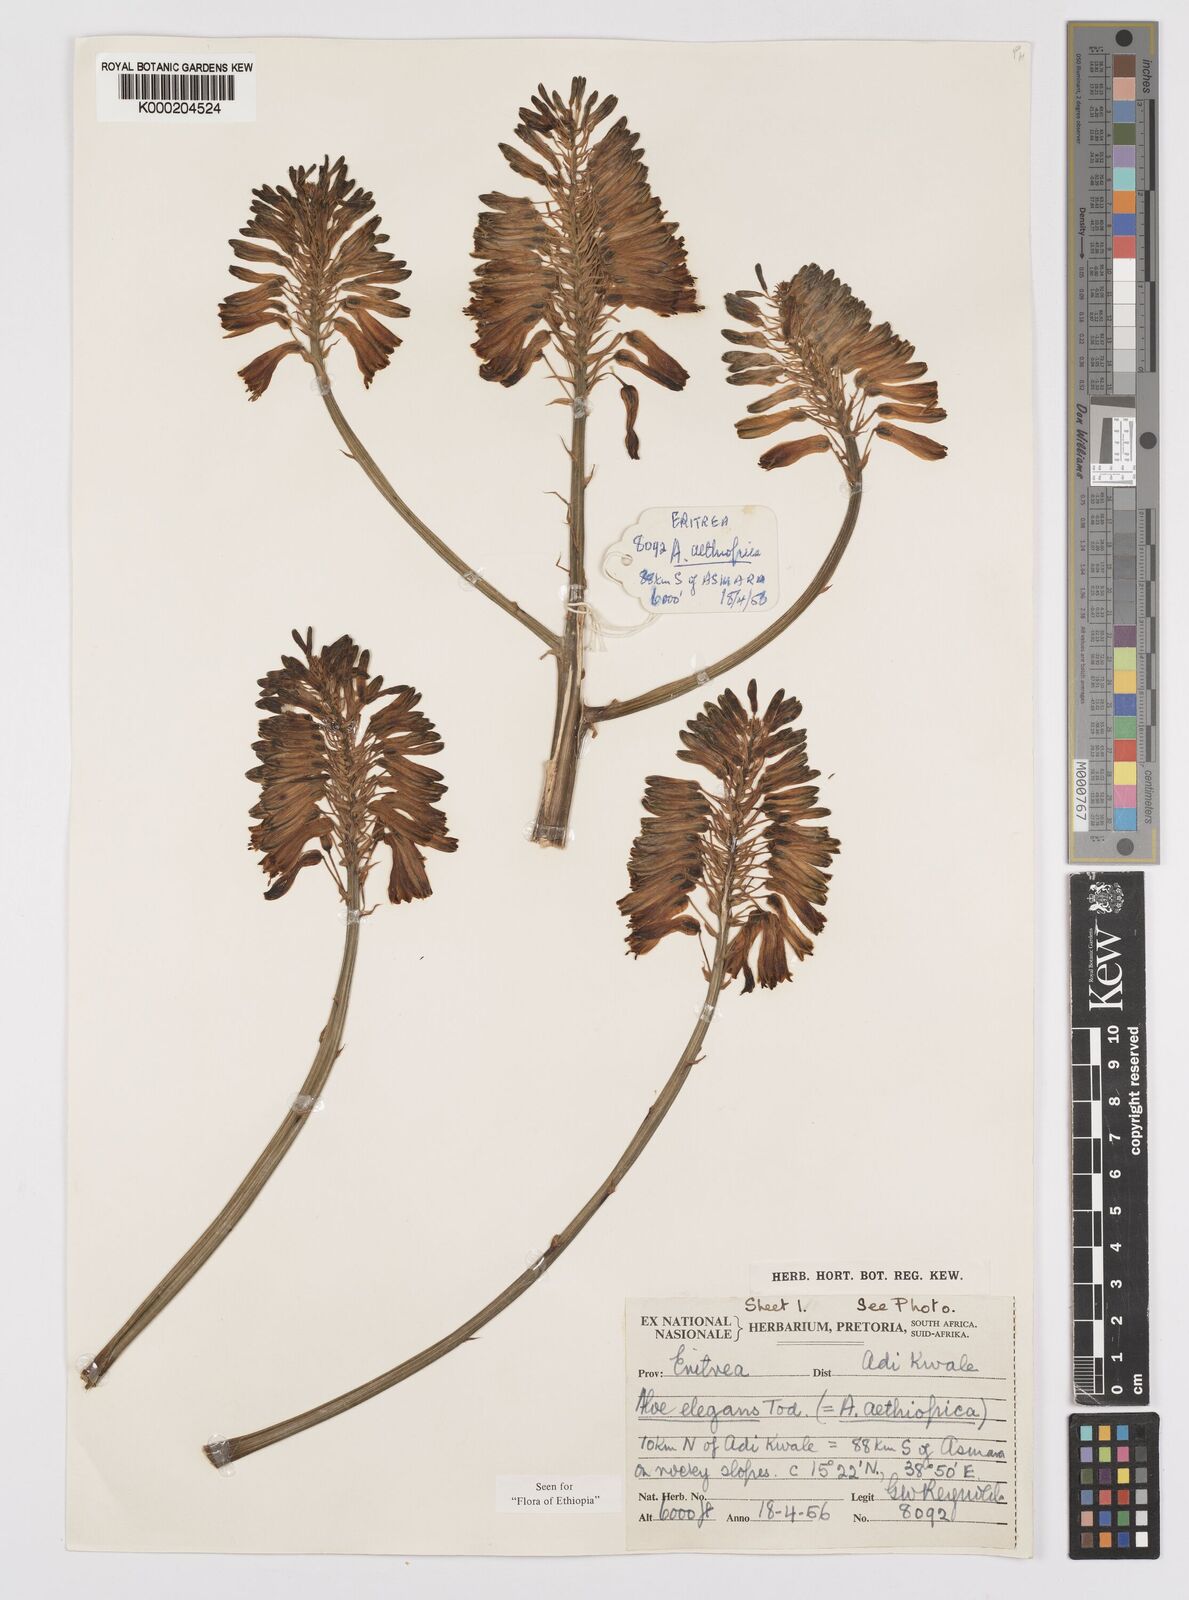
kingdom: Plantae
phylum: Tracheophyta
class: Liliopsida
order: Asparagales
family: Asphodelaceae
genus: Aloe
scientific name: Aloe elegans
